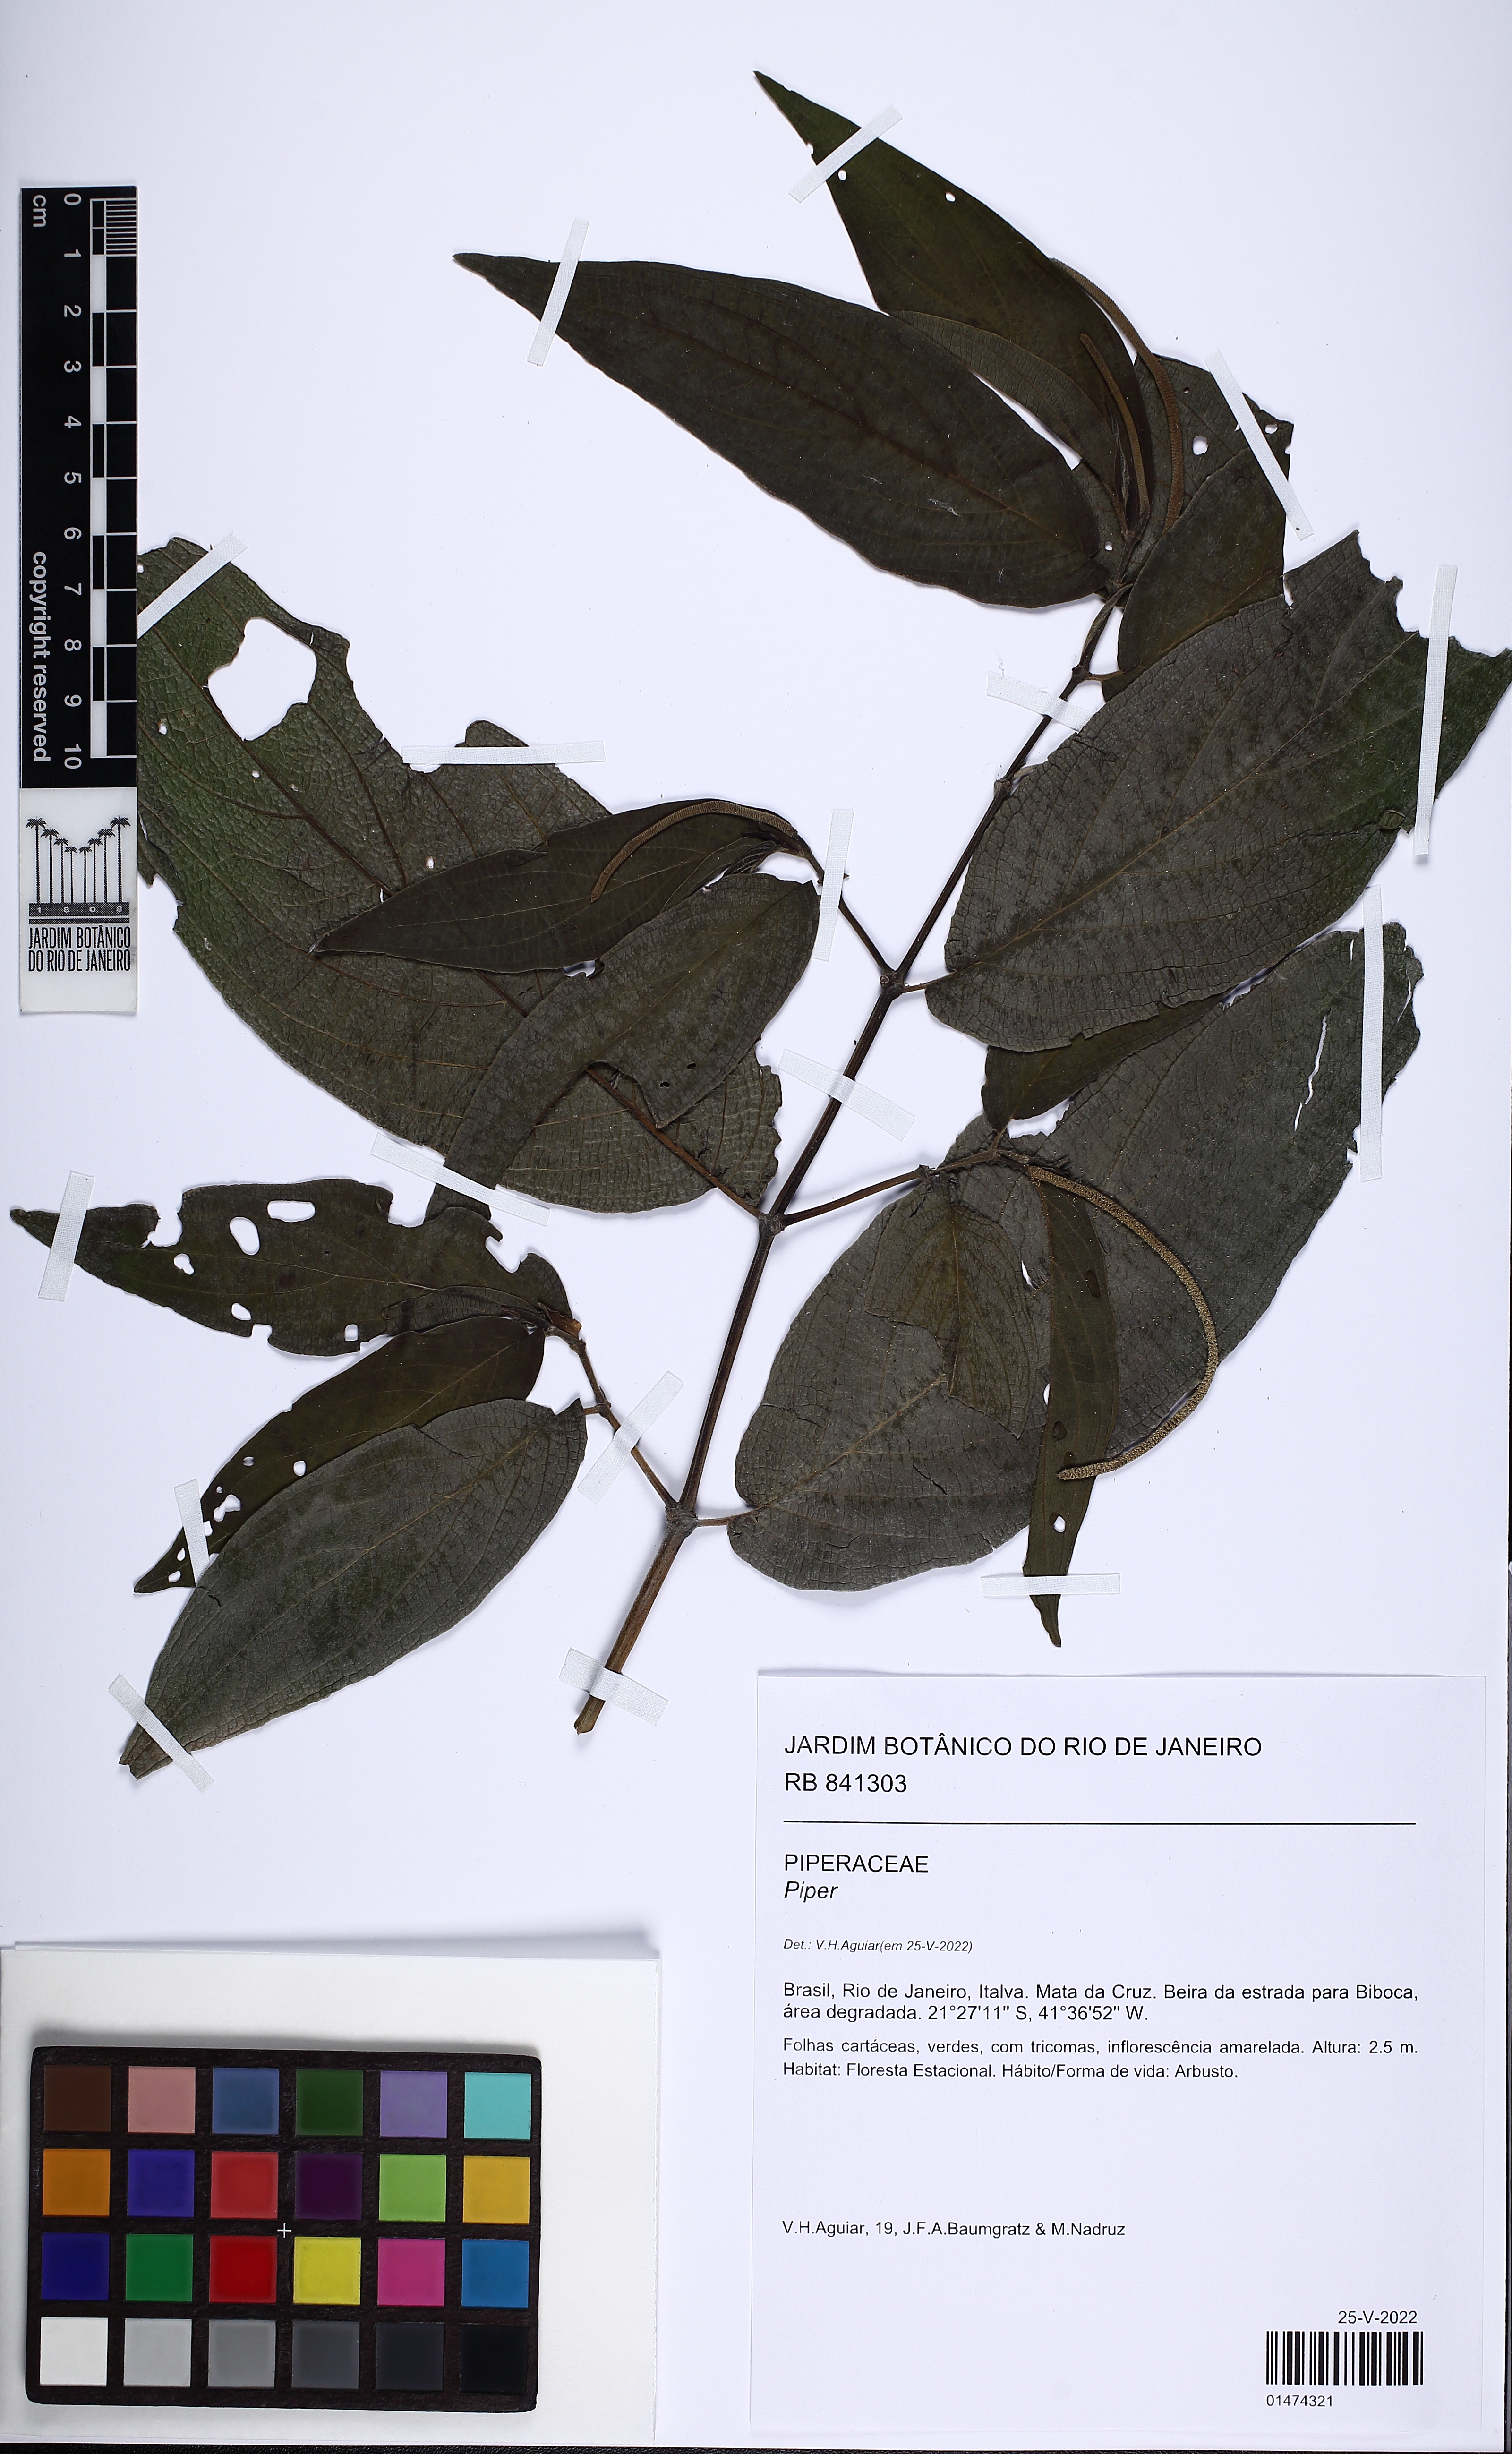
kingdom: Plantae
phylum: Tracheophyta
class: Magnoliopsida
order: Piperales
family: Piperaceae
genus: Piper
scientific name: Piper
